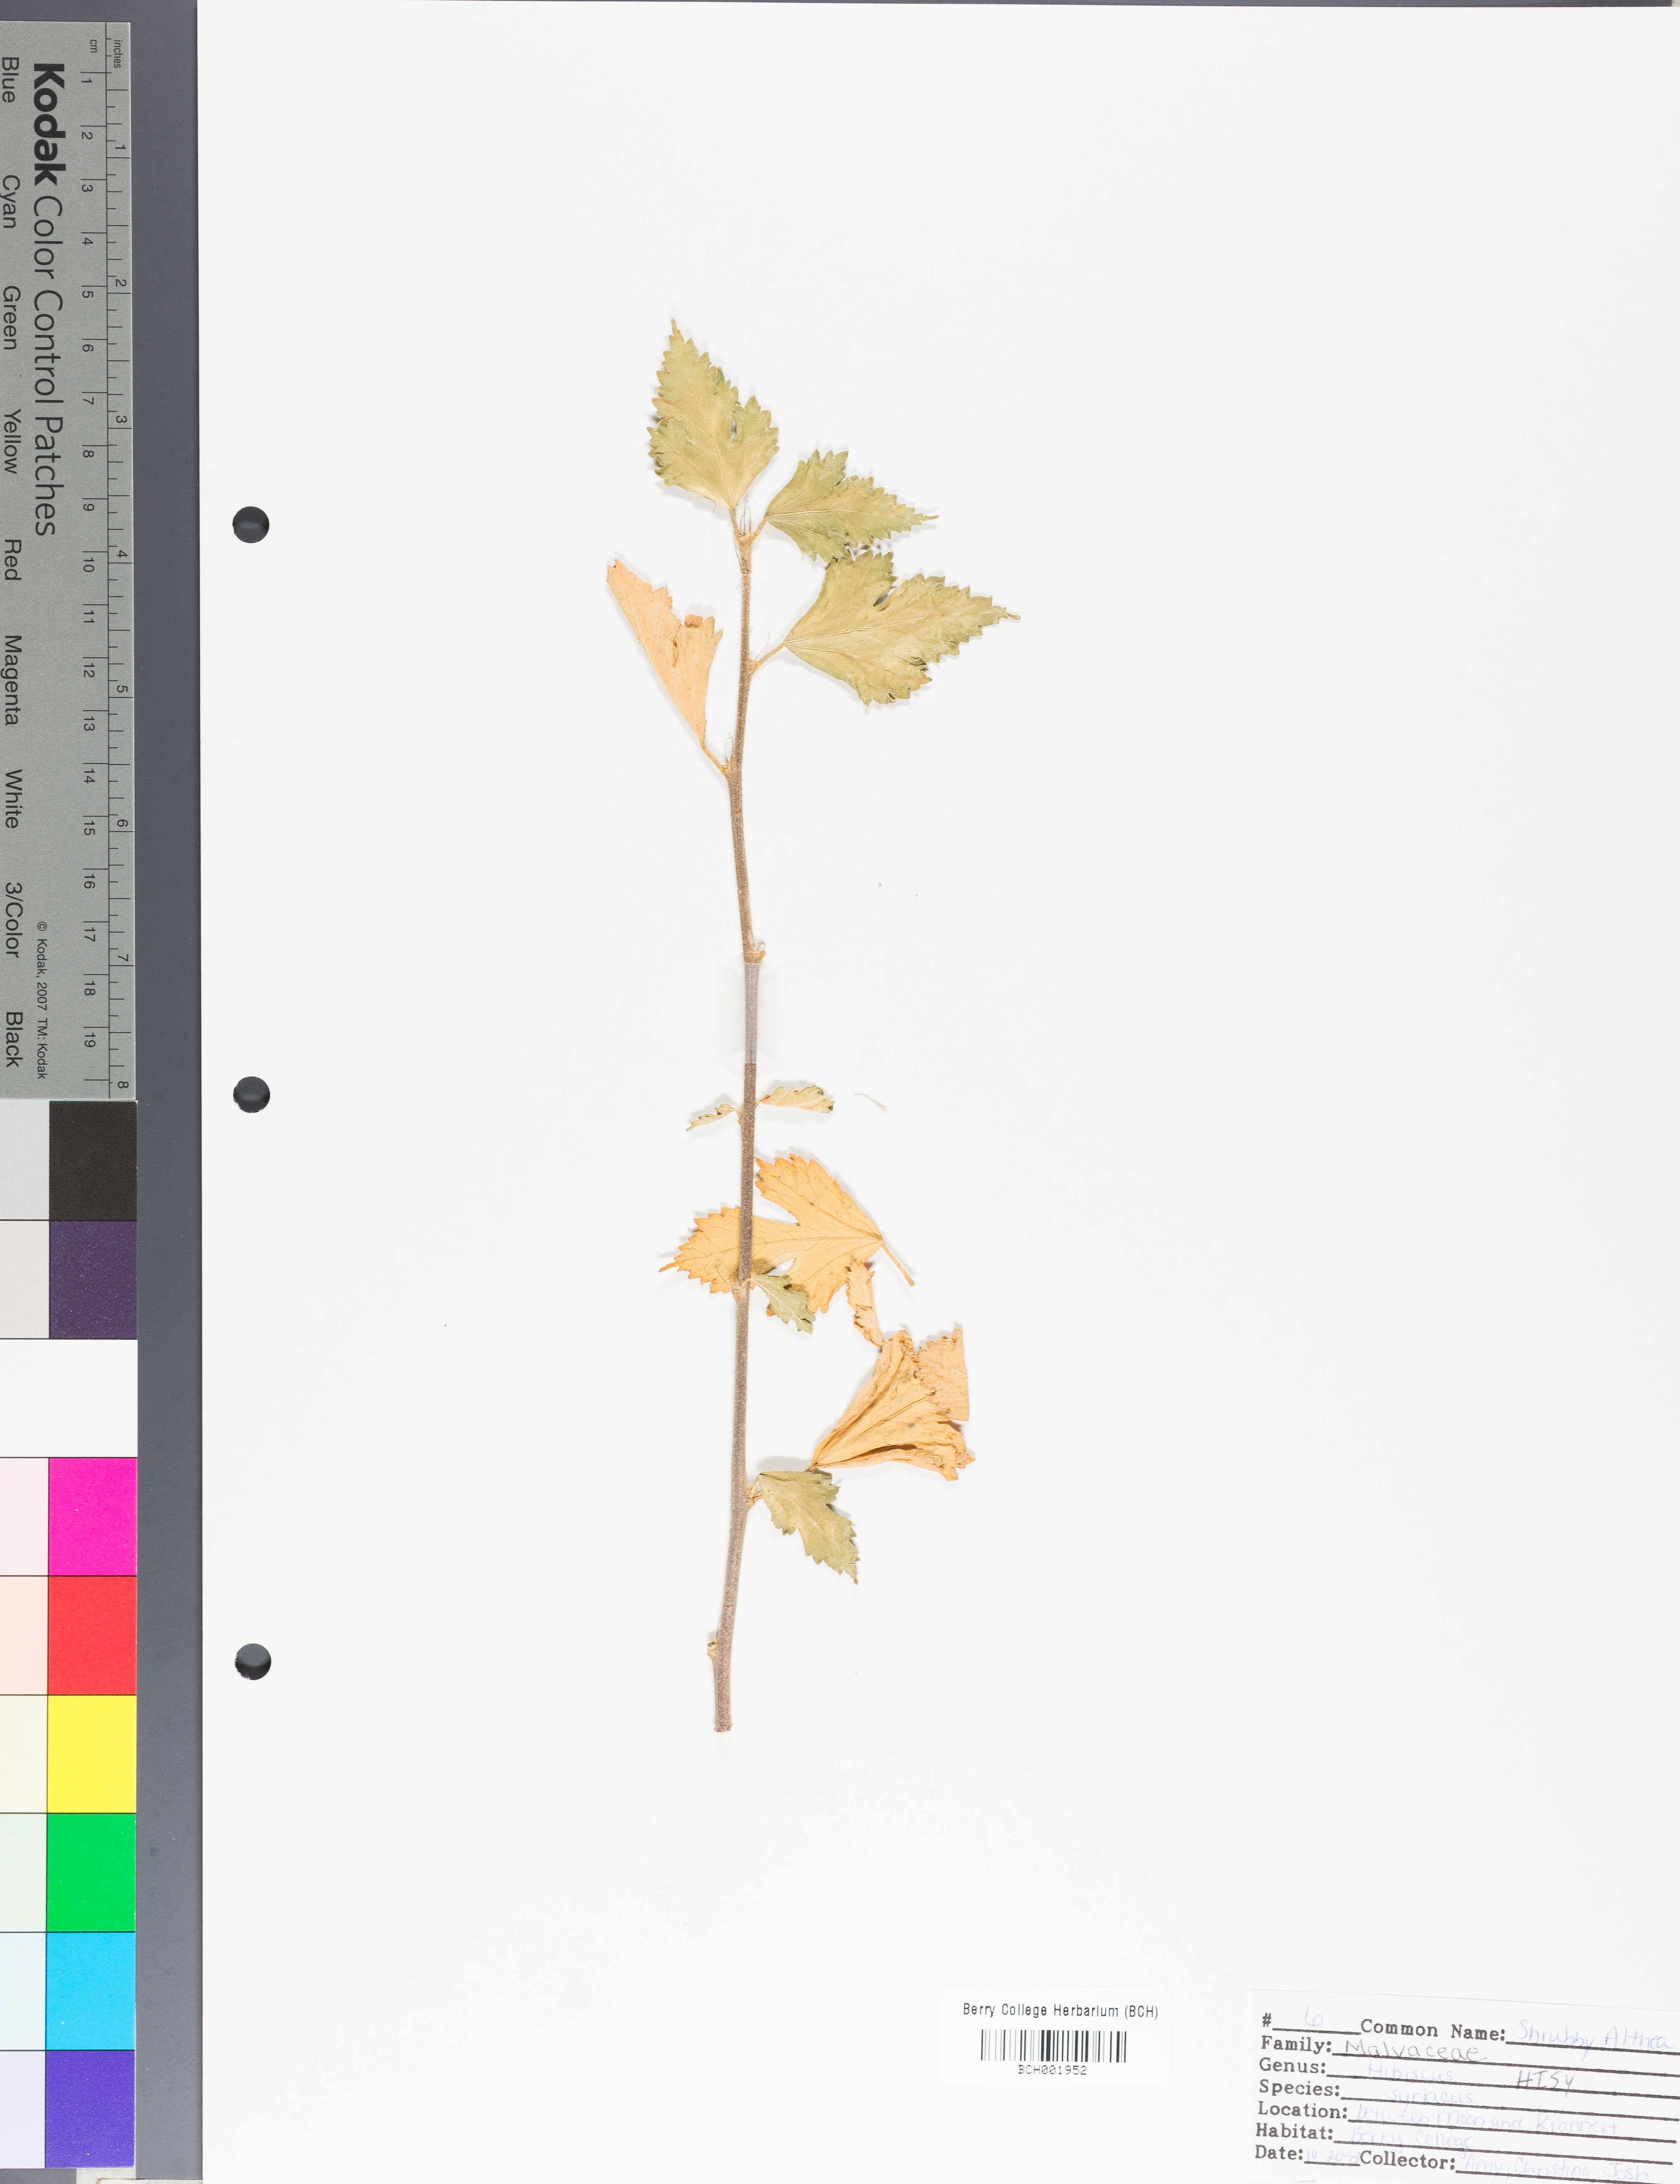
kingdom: Plantae
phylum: Tracheophyta
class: Magnoliopsida
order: Malvales
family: Malvaceae
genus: Hibiscus
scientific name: Hibiscus syriacus
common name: Syrian ketmia
